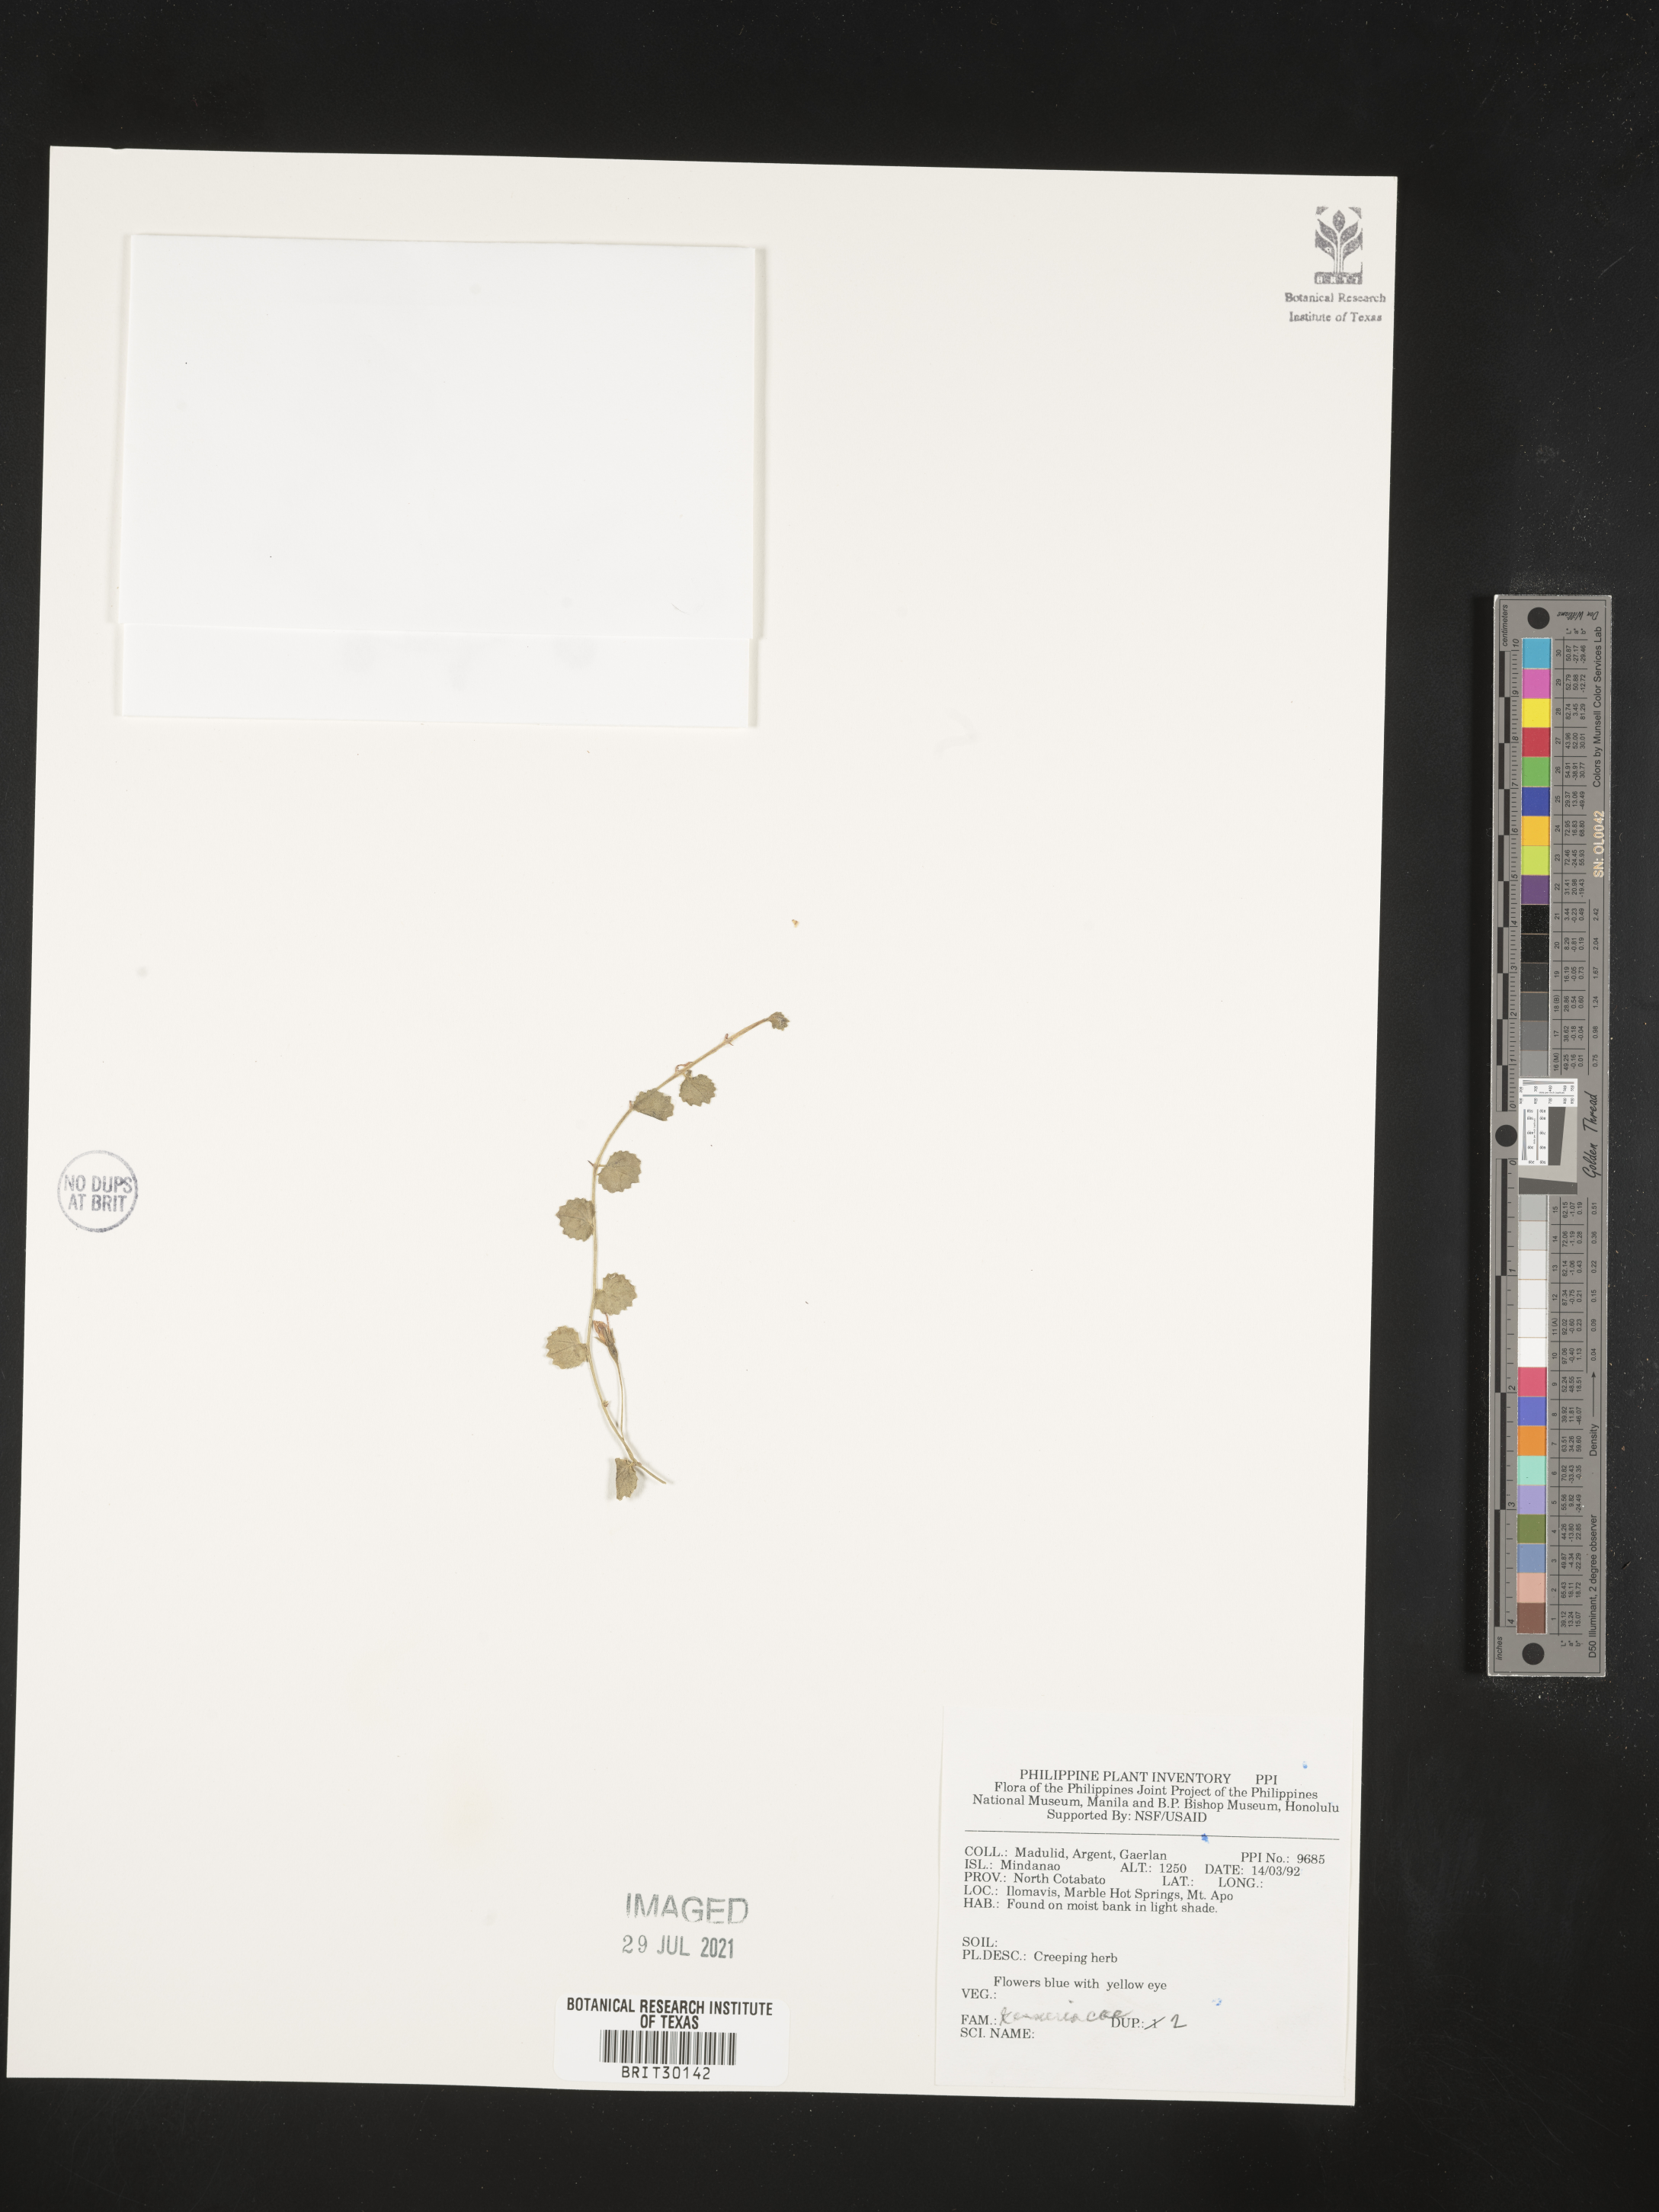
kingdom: Plantae
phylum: Tracheophyta
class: Magnoliopsida
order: Lamiales
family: Gesneriaceae
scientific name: Gesneriaceae
